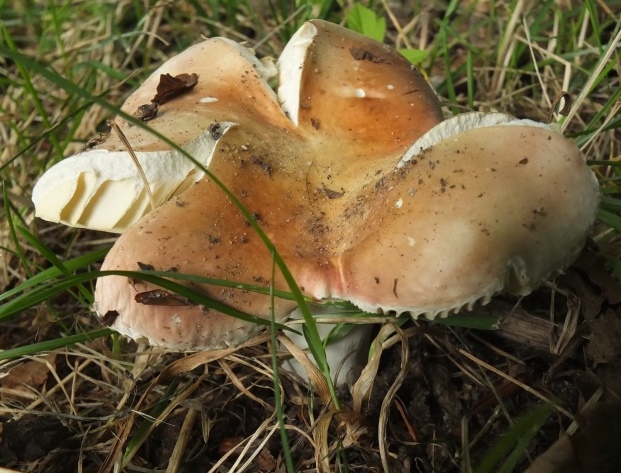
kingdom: Fungi
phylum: Basidiomycota
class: Agaricomycetes
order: Russulales
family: Russulaceae
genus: Russula
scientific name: Russula veternosa
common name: blødkødet skørhat
